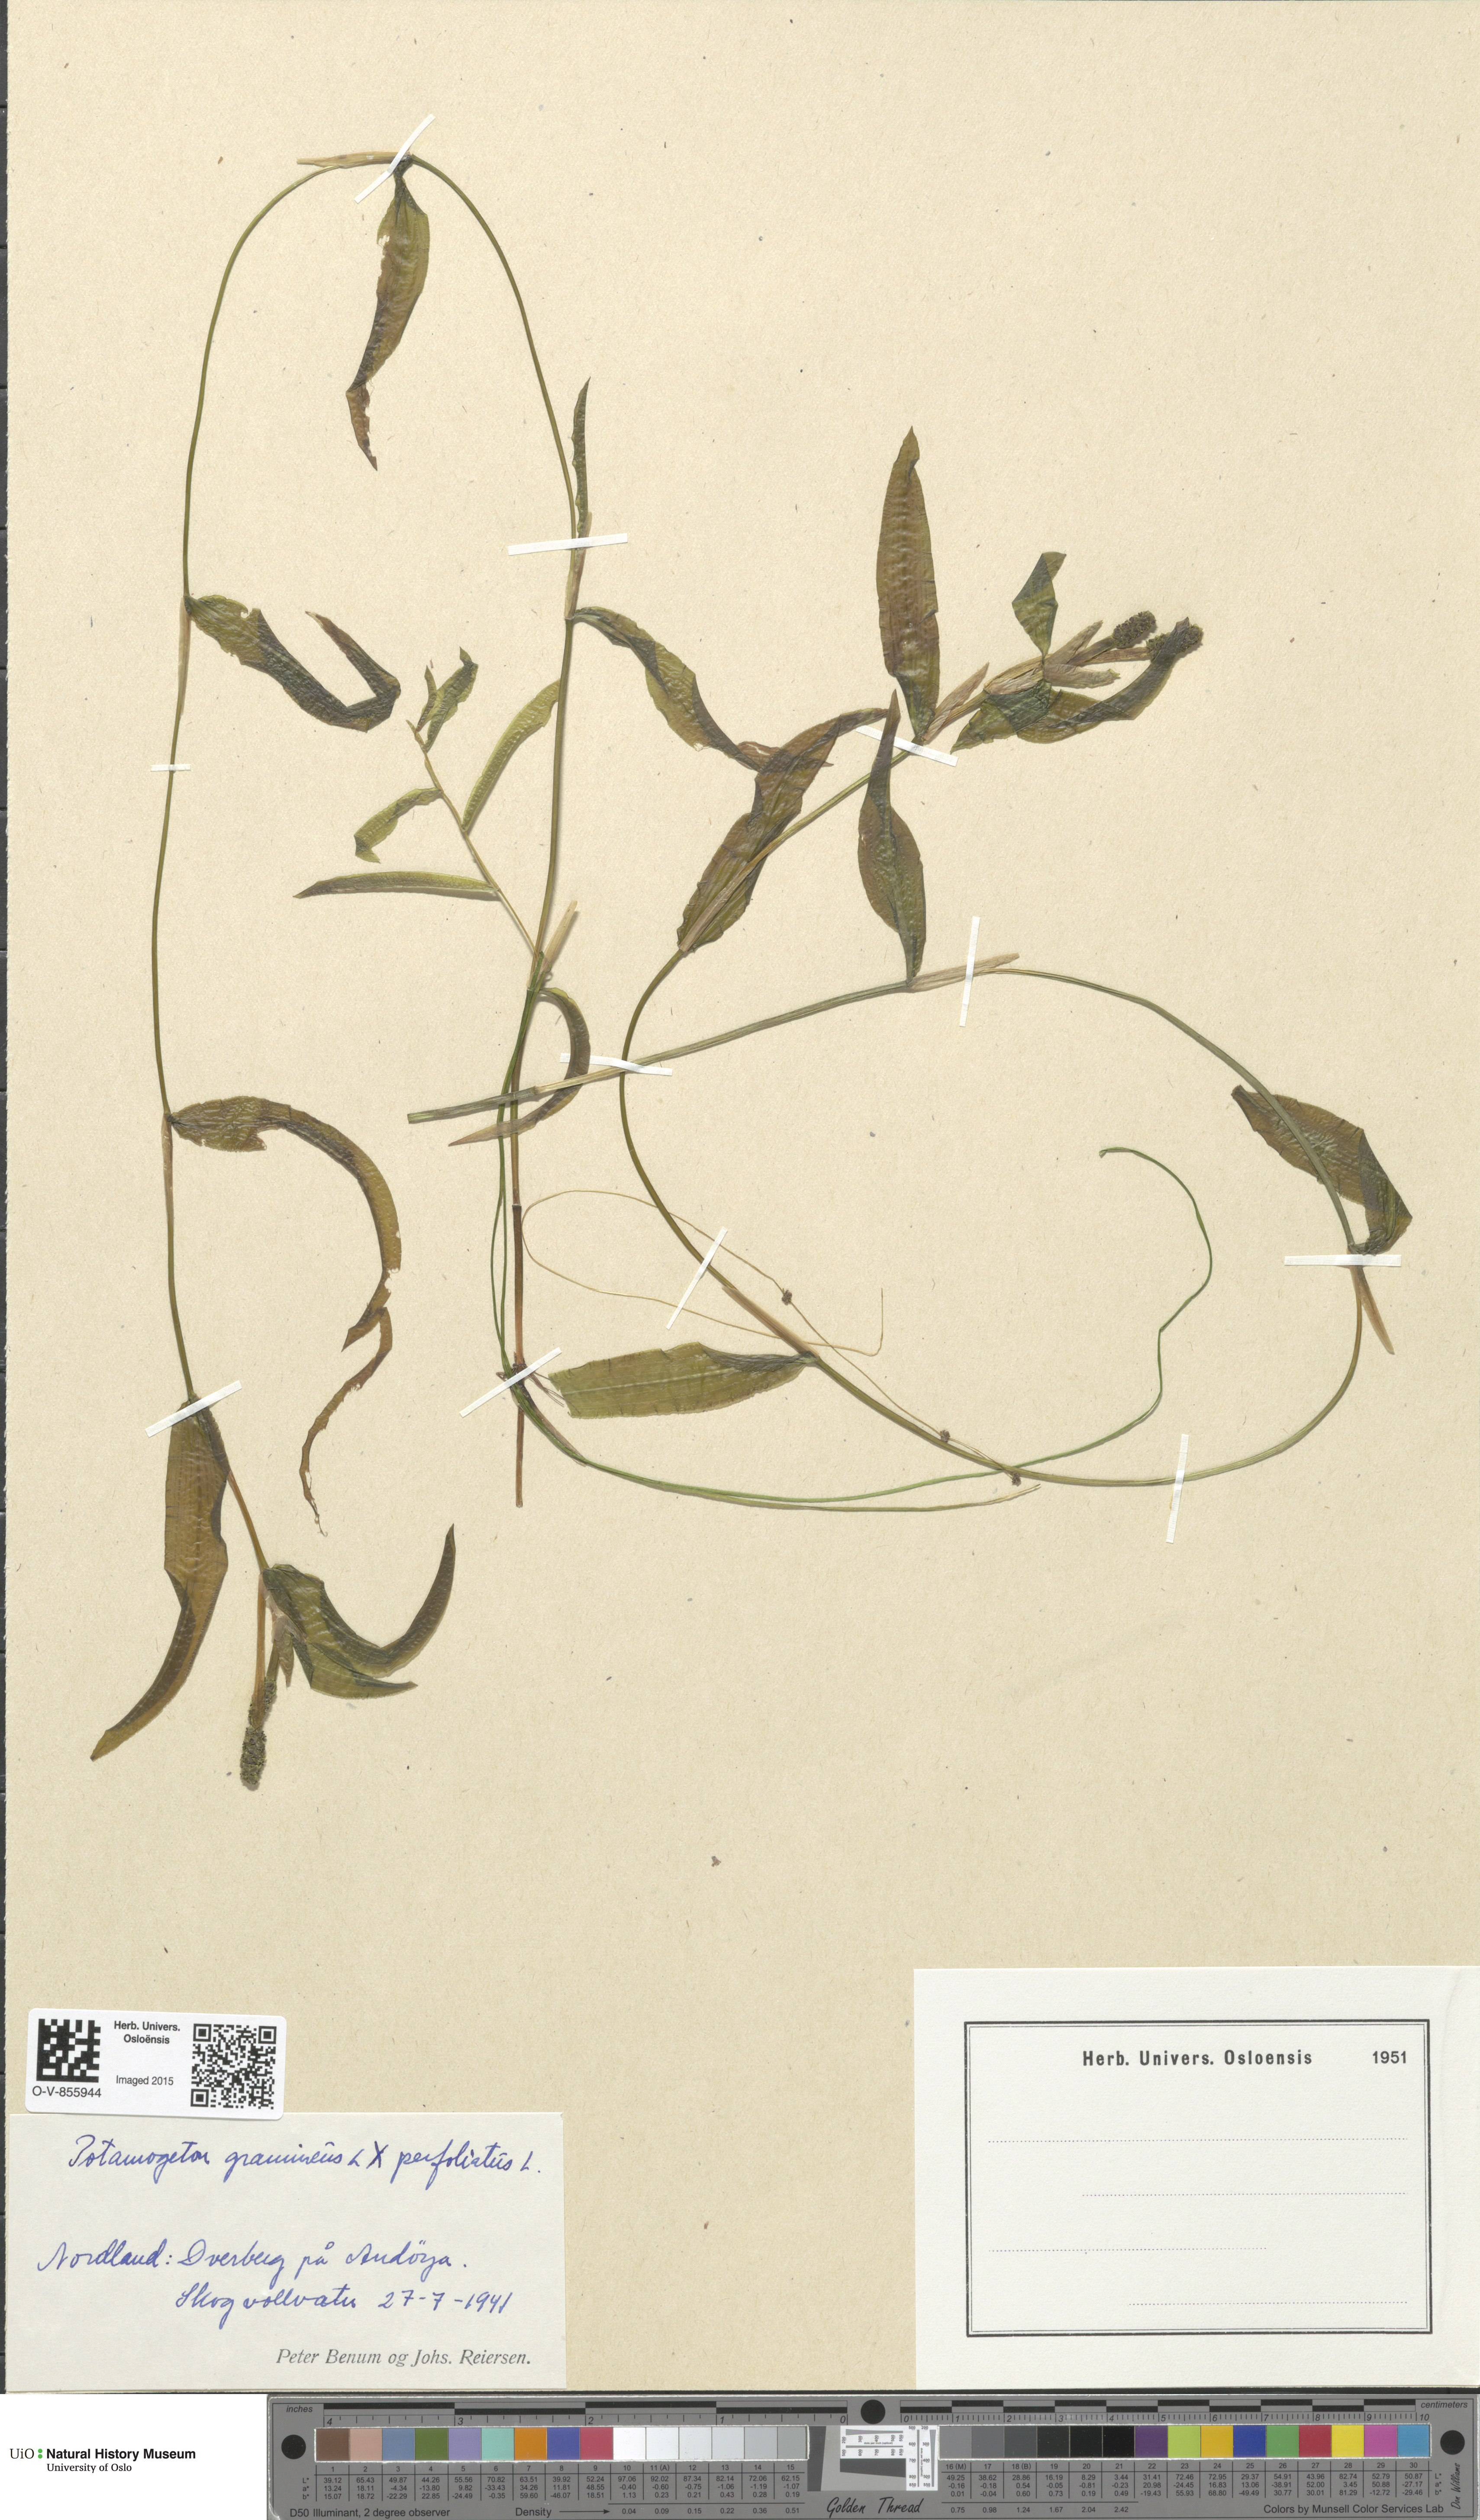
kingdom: Plantae
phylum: Tracheophyta
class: Liliopsida
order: Alismatales
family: Potamogetonaceae
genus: Potamogeton
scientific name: Potamogeton nitens
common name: Pondweed
